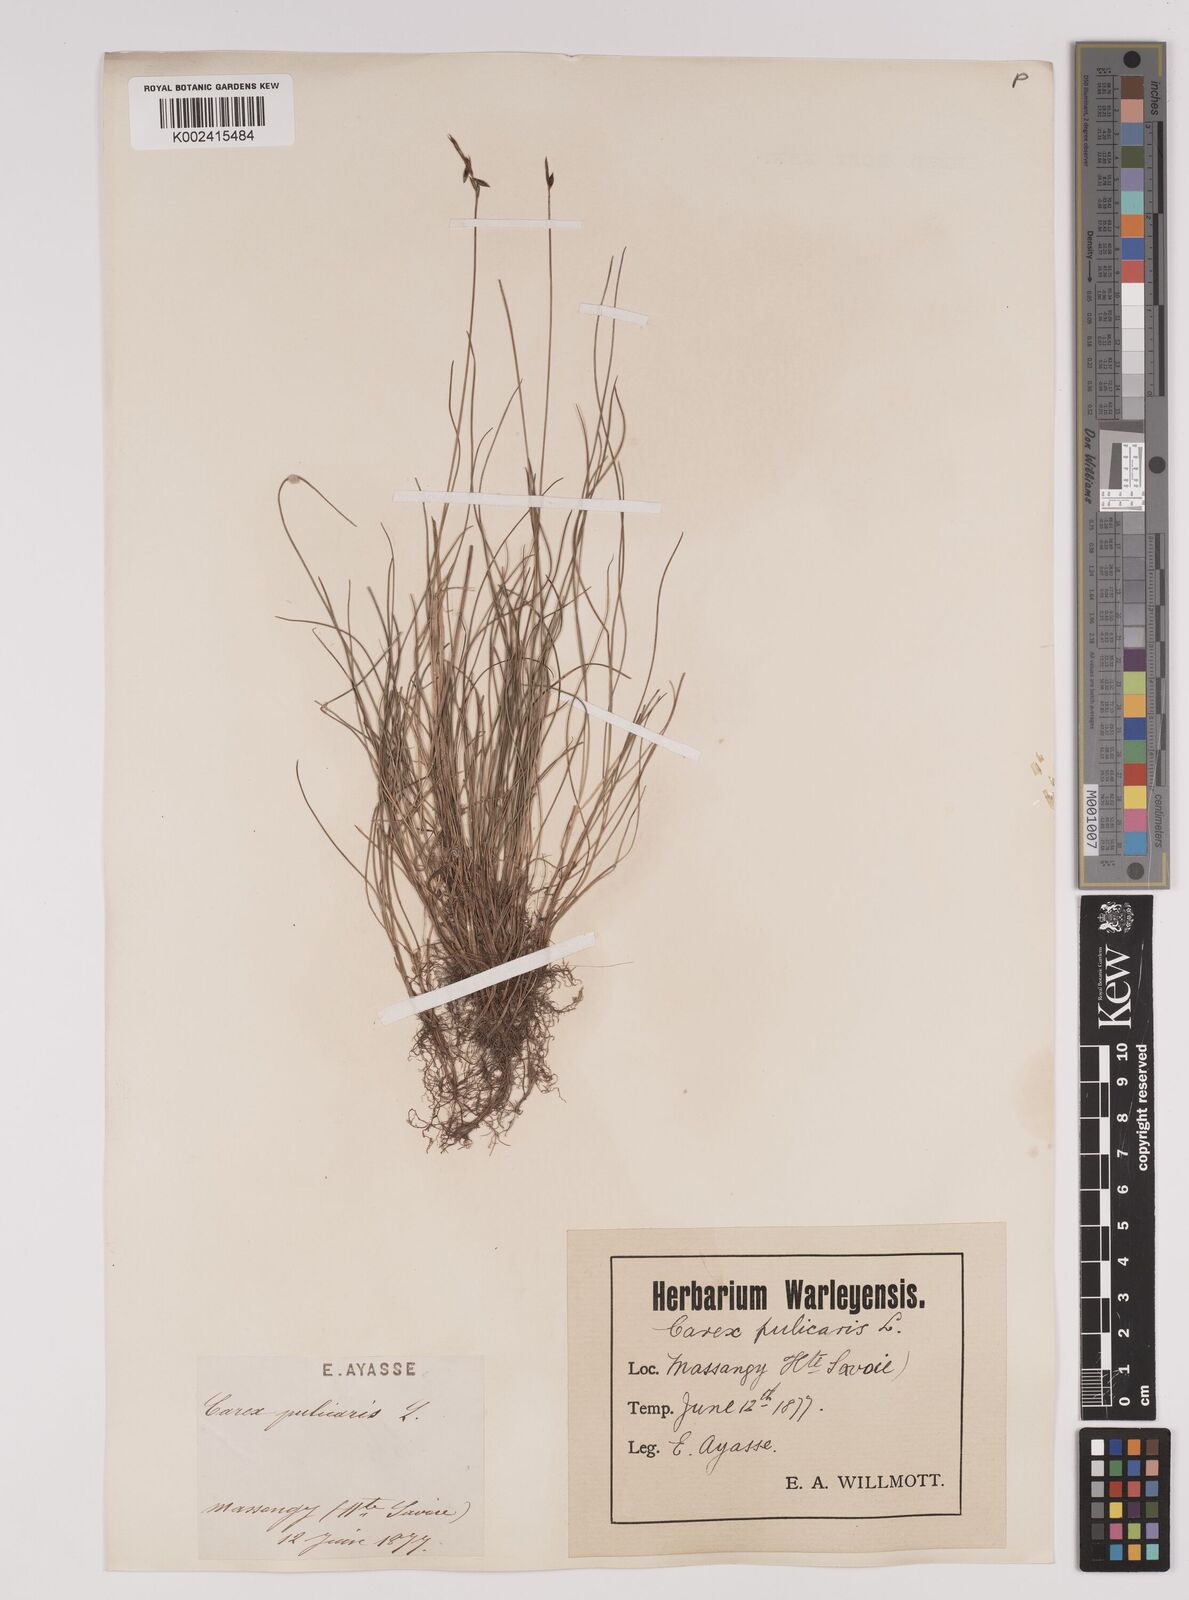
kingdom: Plantae
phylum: Tracheophyta
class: Liliopsida
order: Poales
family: Cyperaceae
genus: Carex
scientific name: Carex pulicaris
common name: Flea sedge
